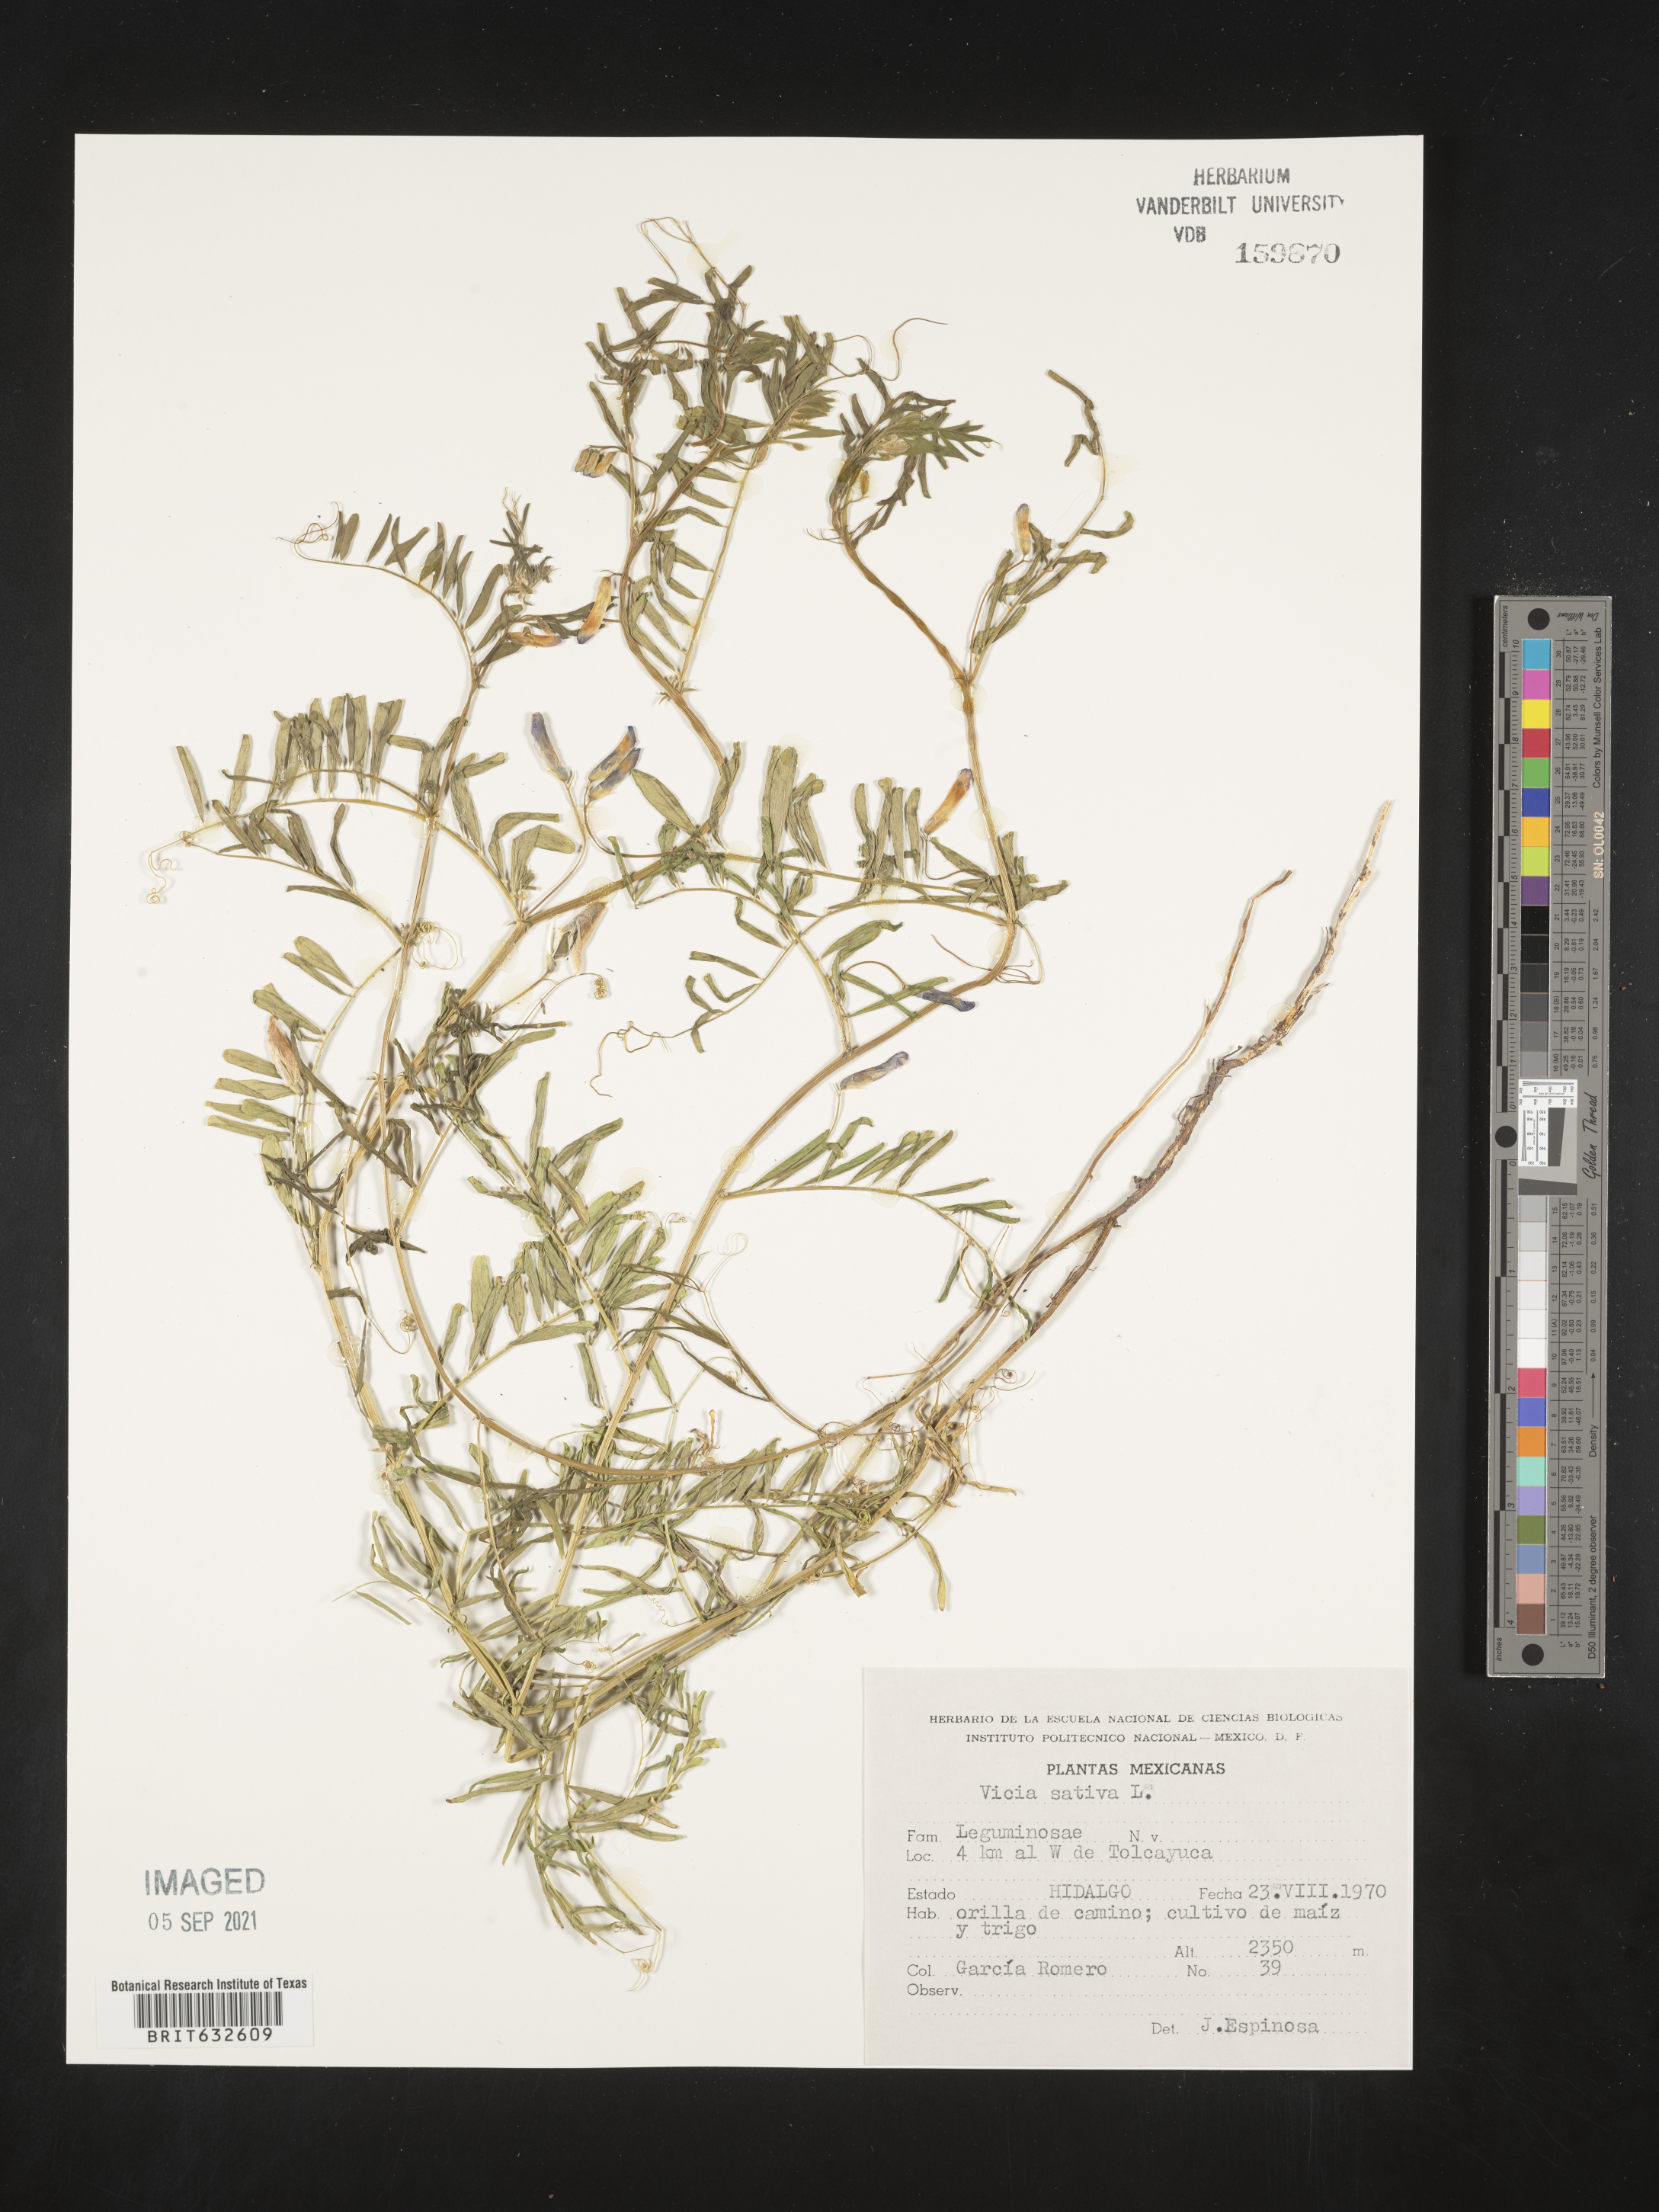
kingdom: Plantae
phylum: Tracheophyta
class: Magnoliopsida
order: Fabales
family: Fabaceae
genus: Vicia
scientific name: Vicia
